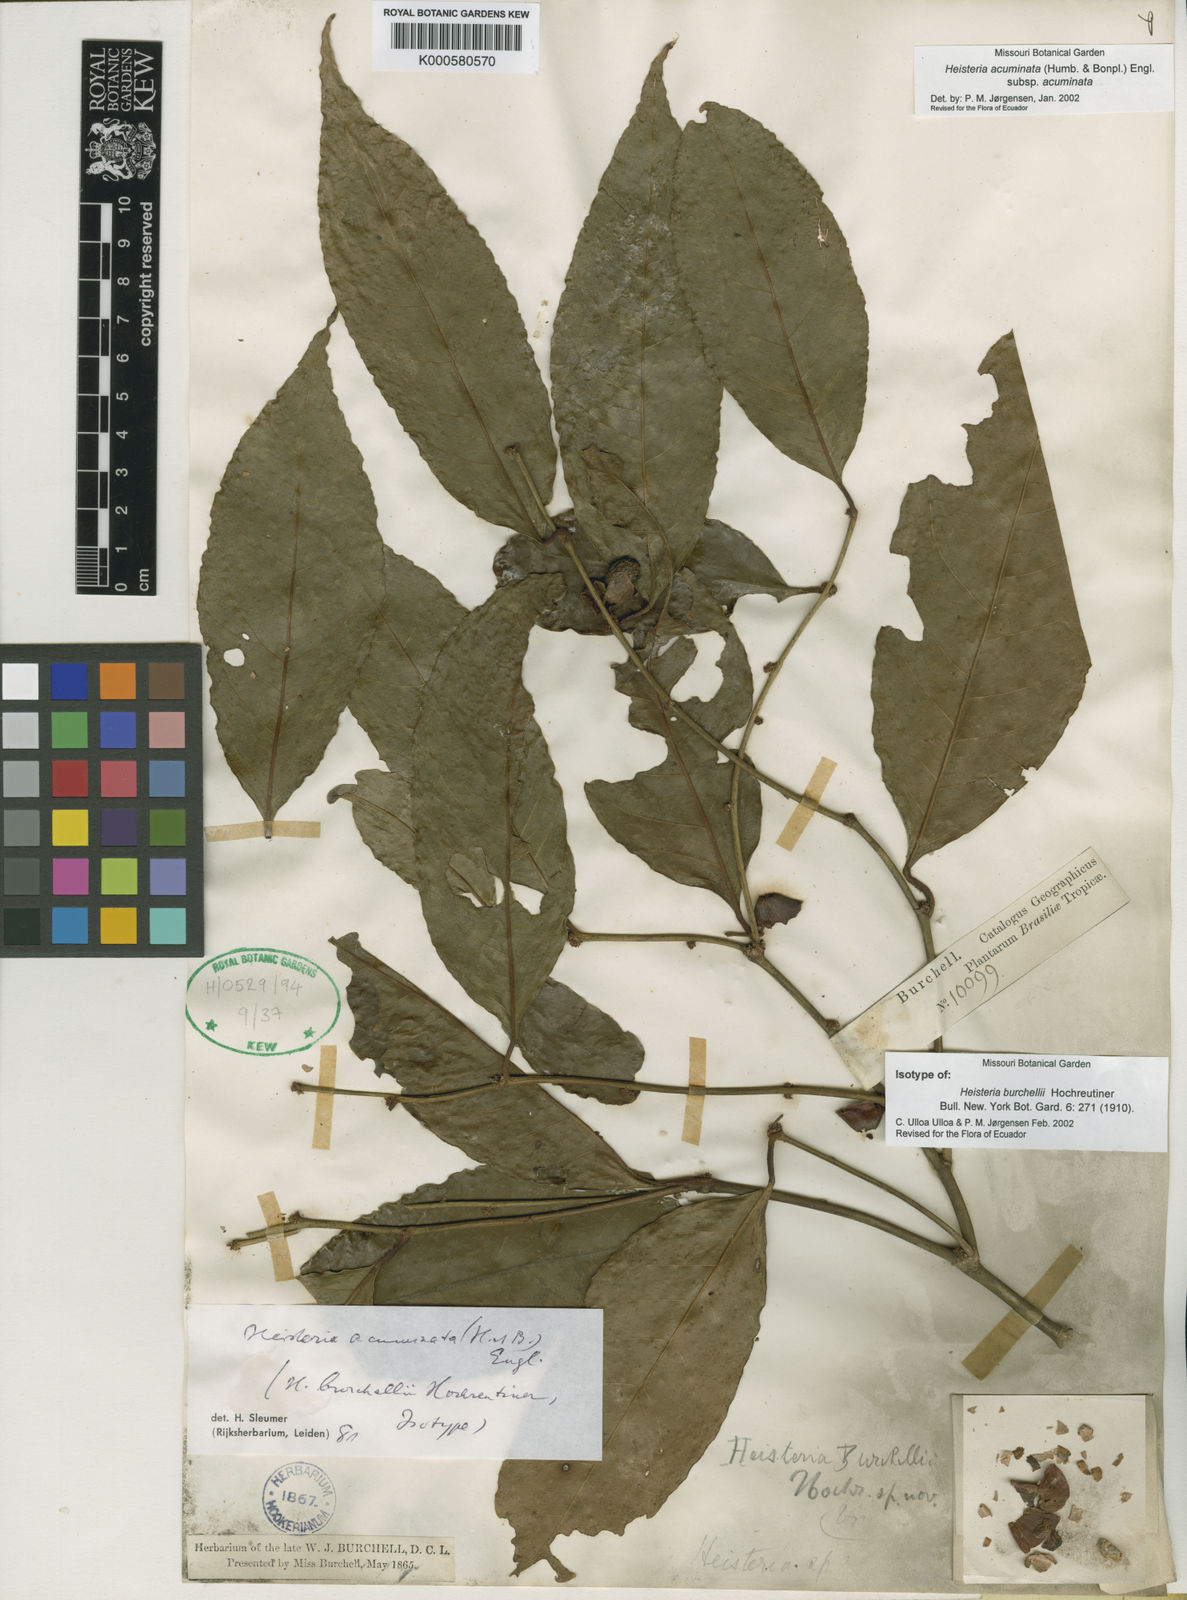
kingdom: Plantae
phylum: Tracheophyta
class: Magnoliopsida
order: Santalales
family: Erythropalaceae
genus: Heisteria
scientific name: Heisteria acuminata
